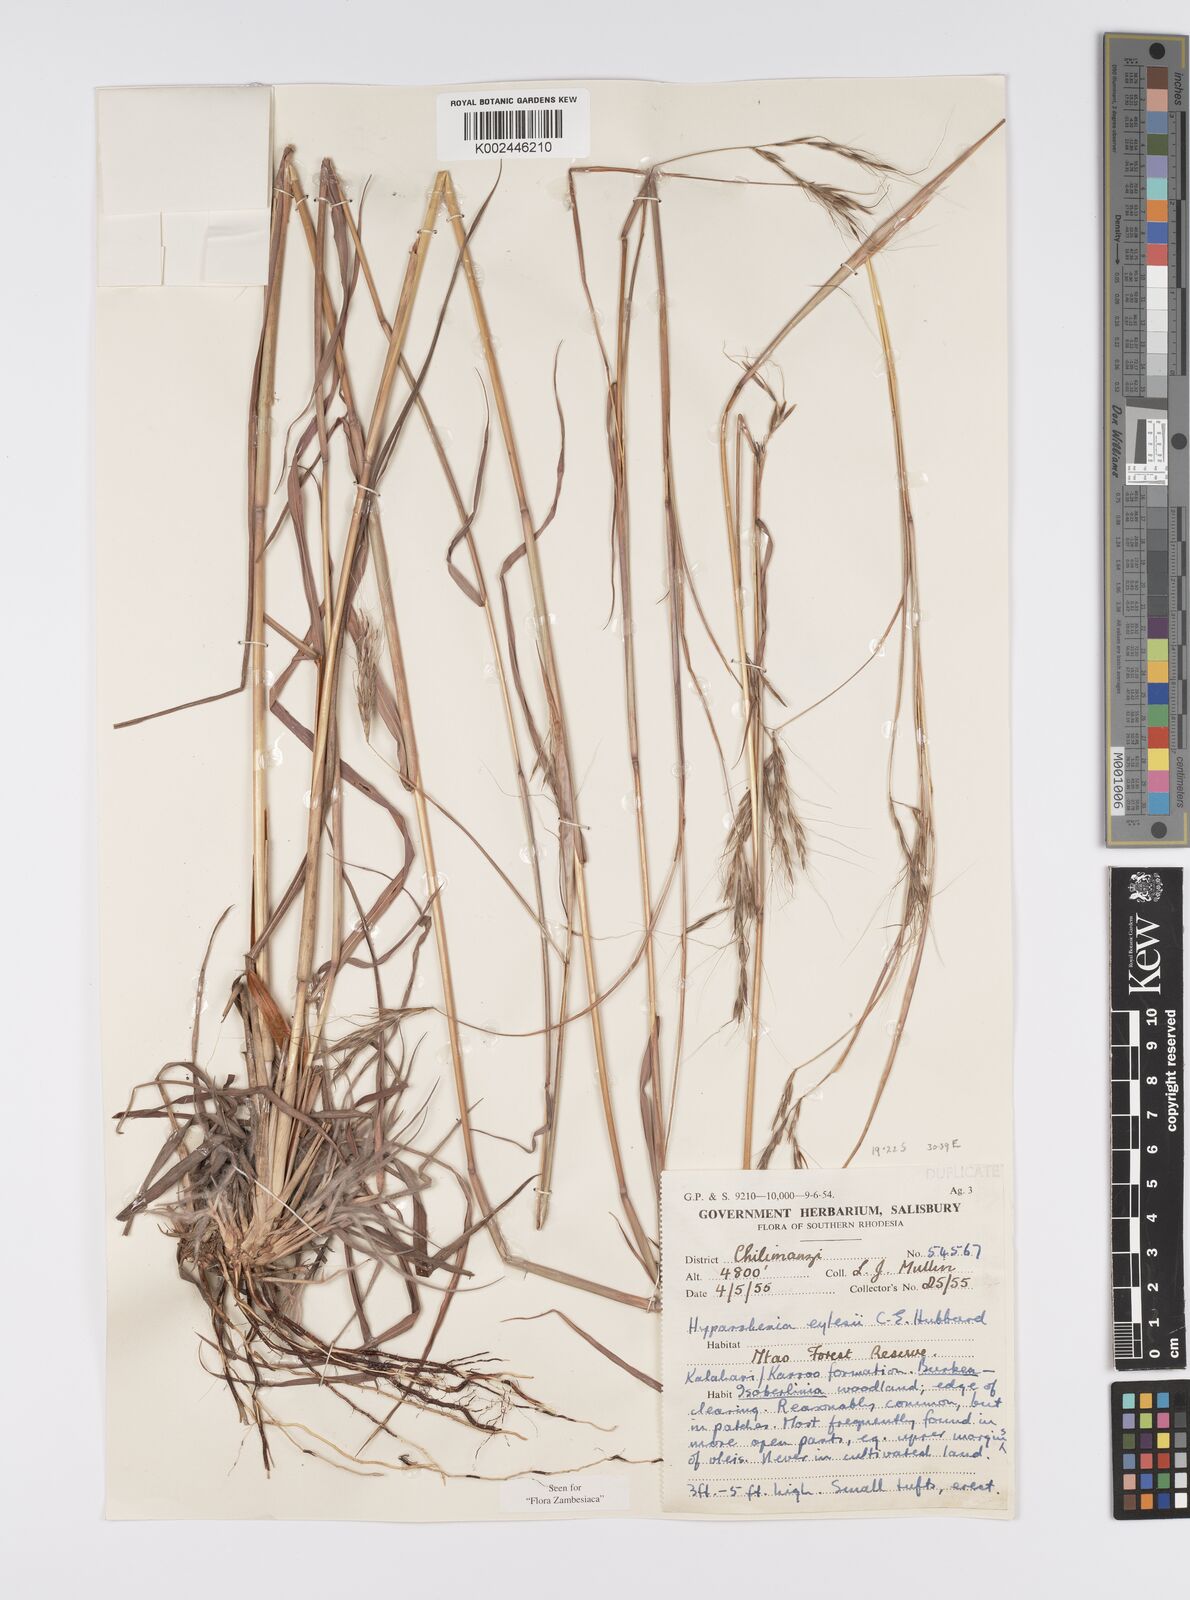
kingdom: Plantae
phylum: Tracheophyta
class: Liliopsida
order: Poales
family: Poaceae
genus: Elymandra
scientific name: Elymandra grallata
